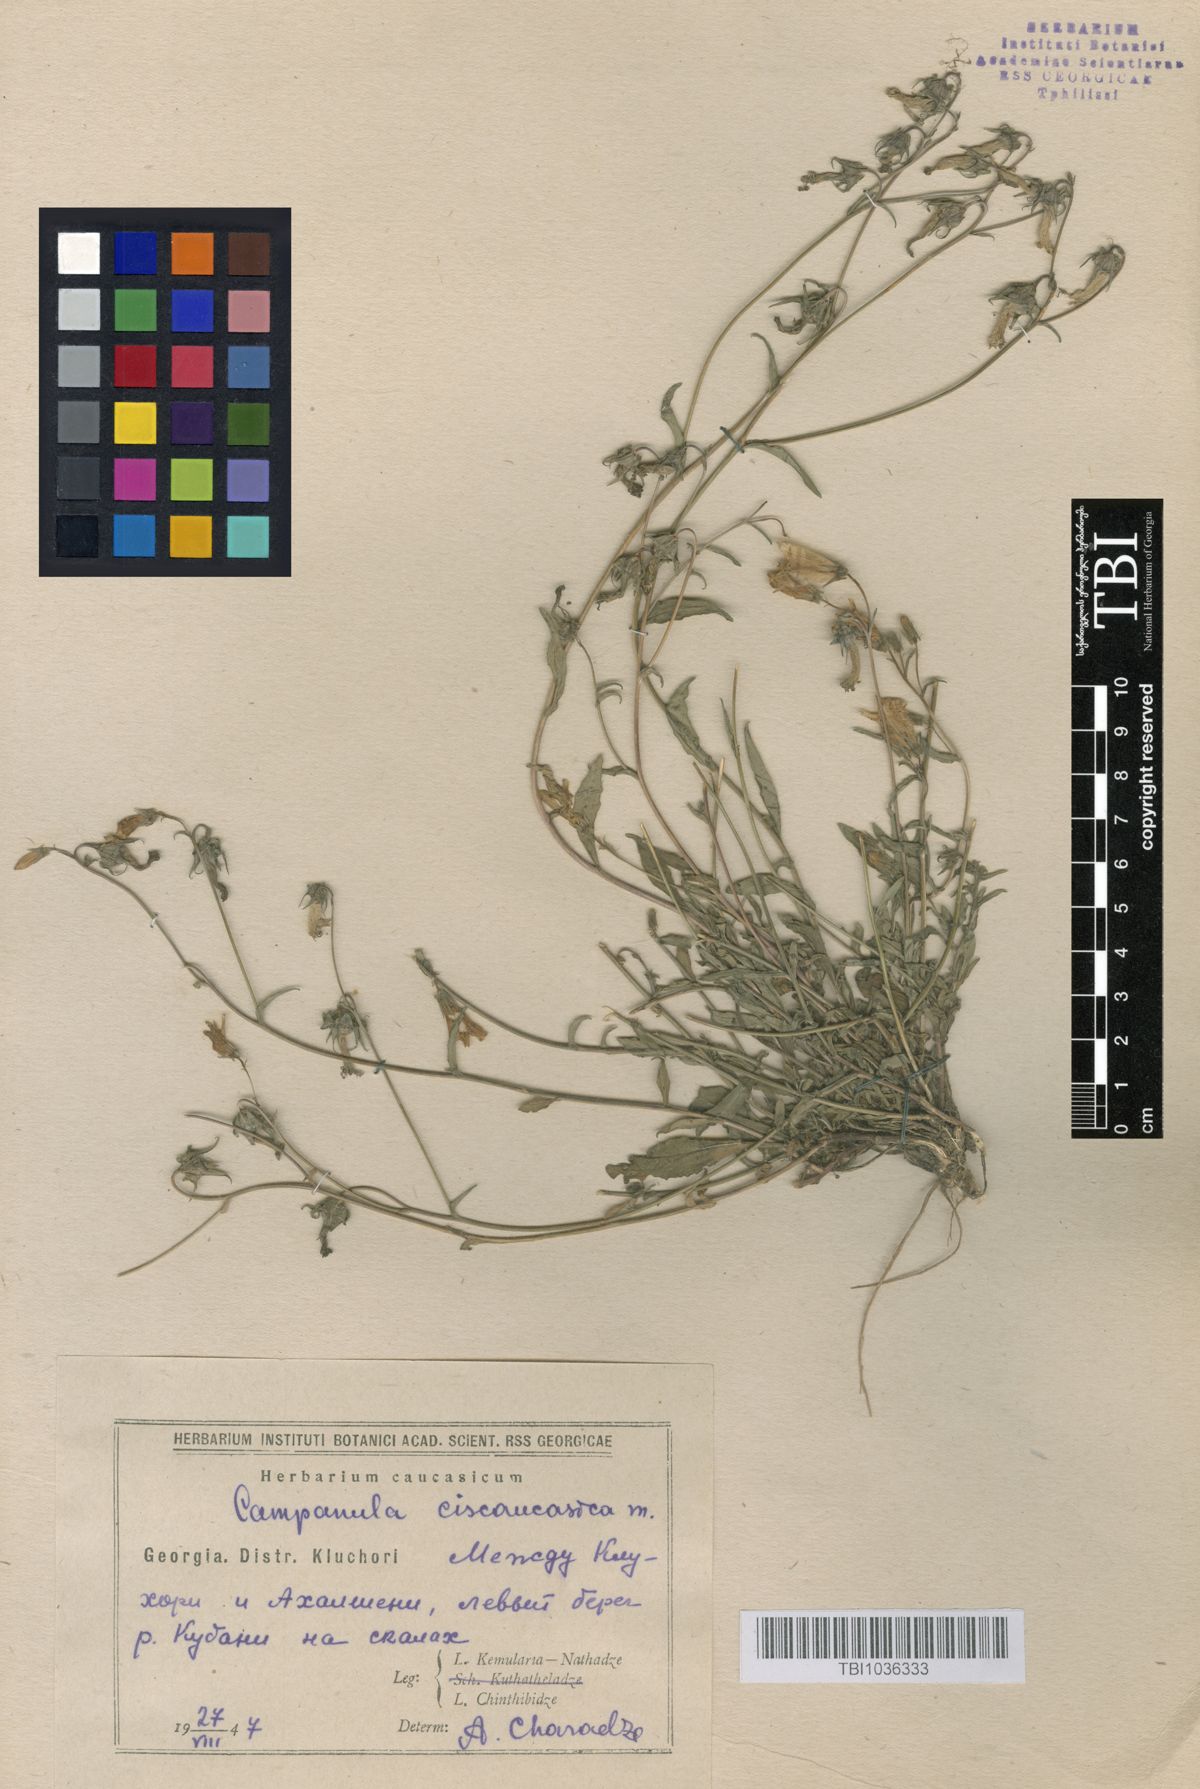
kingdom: Plantae
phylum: Tracheophyta
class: Magnoliopsida
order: Asterales
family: Campanulaceae
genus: Campanula
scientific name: Campanula sibirica
